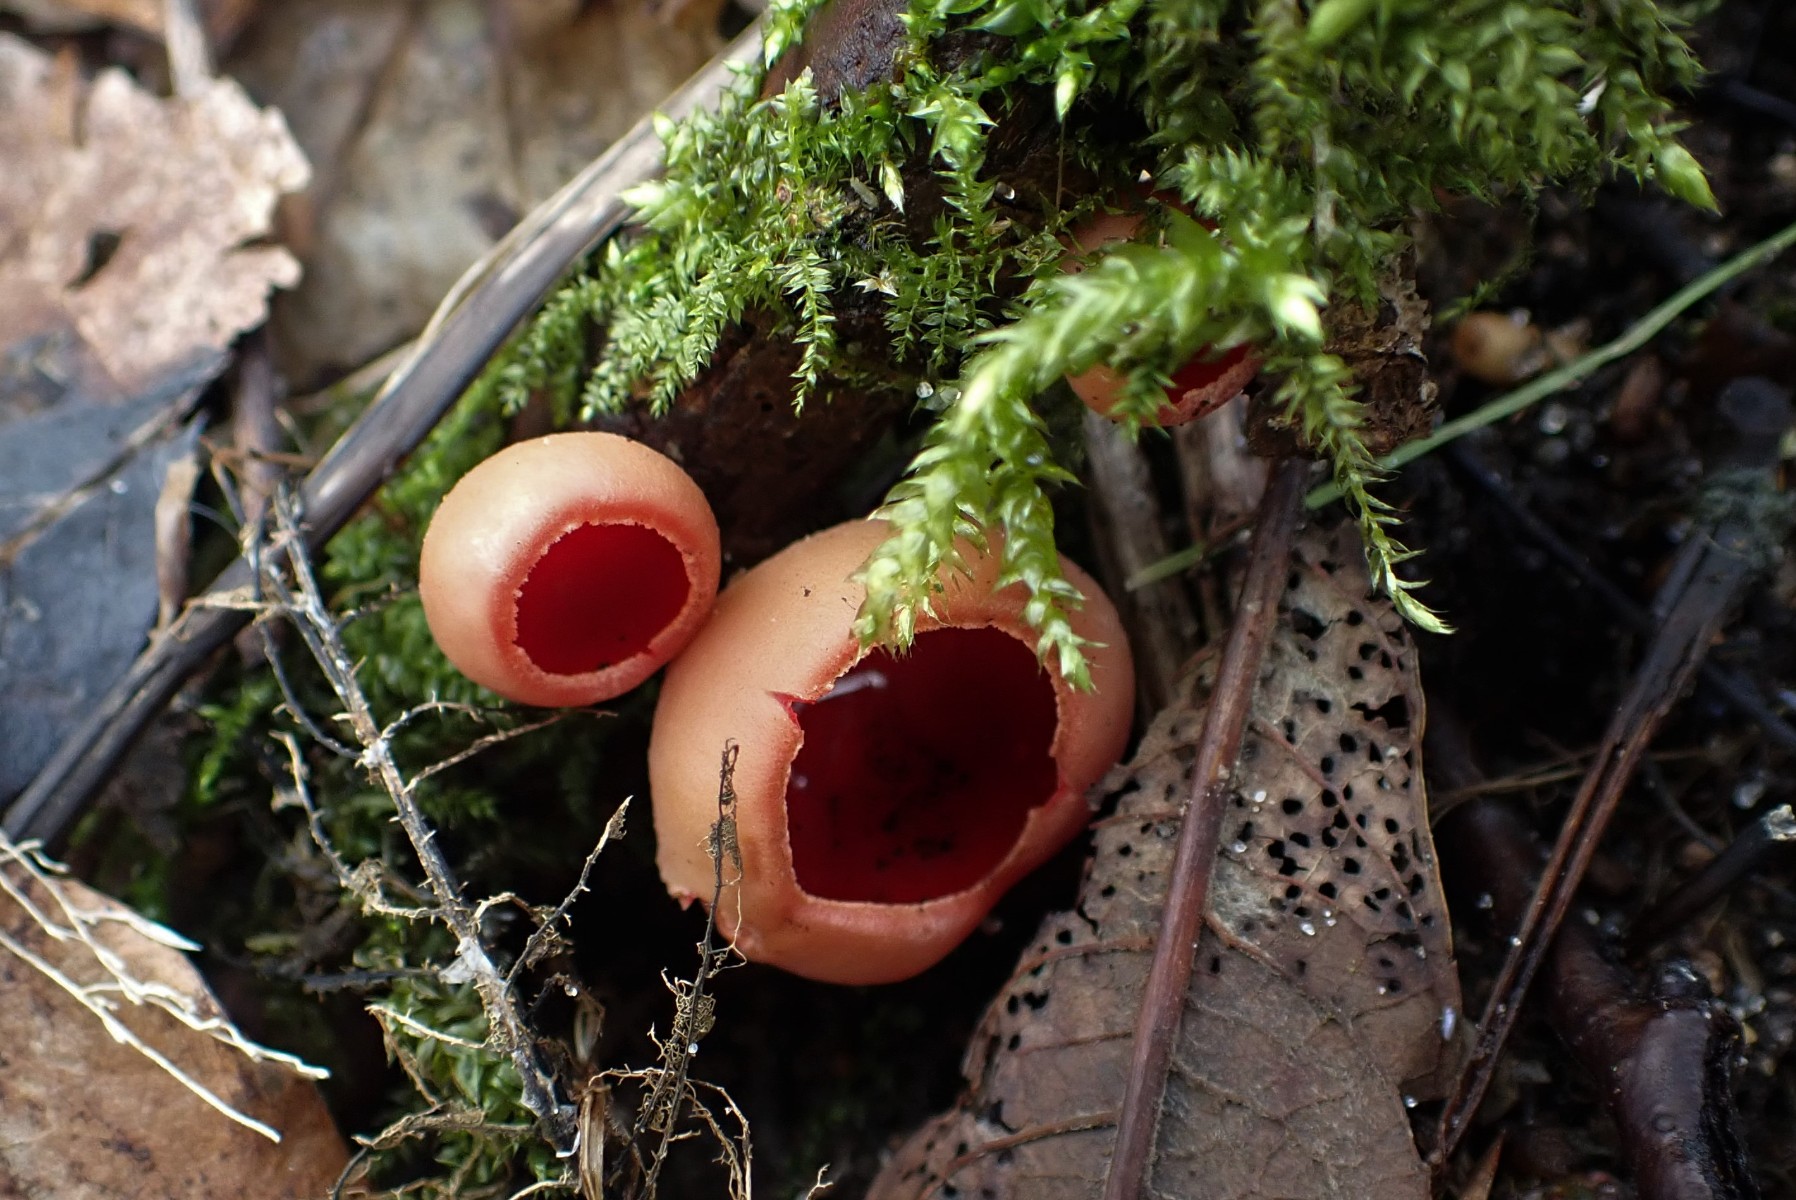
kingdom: Fungi
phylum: Ascomycota
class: Pezizomycetes
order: Pezizales
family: Sarcoscyphaceae
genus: Sarcoscypha
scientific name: Sarcoscypha austriaca
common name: krølhåret pragtbæger
